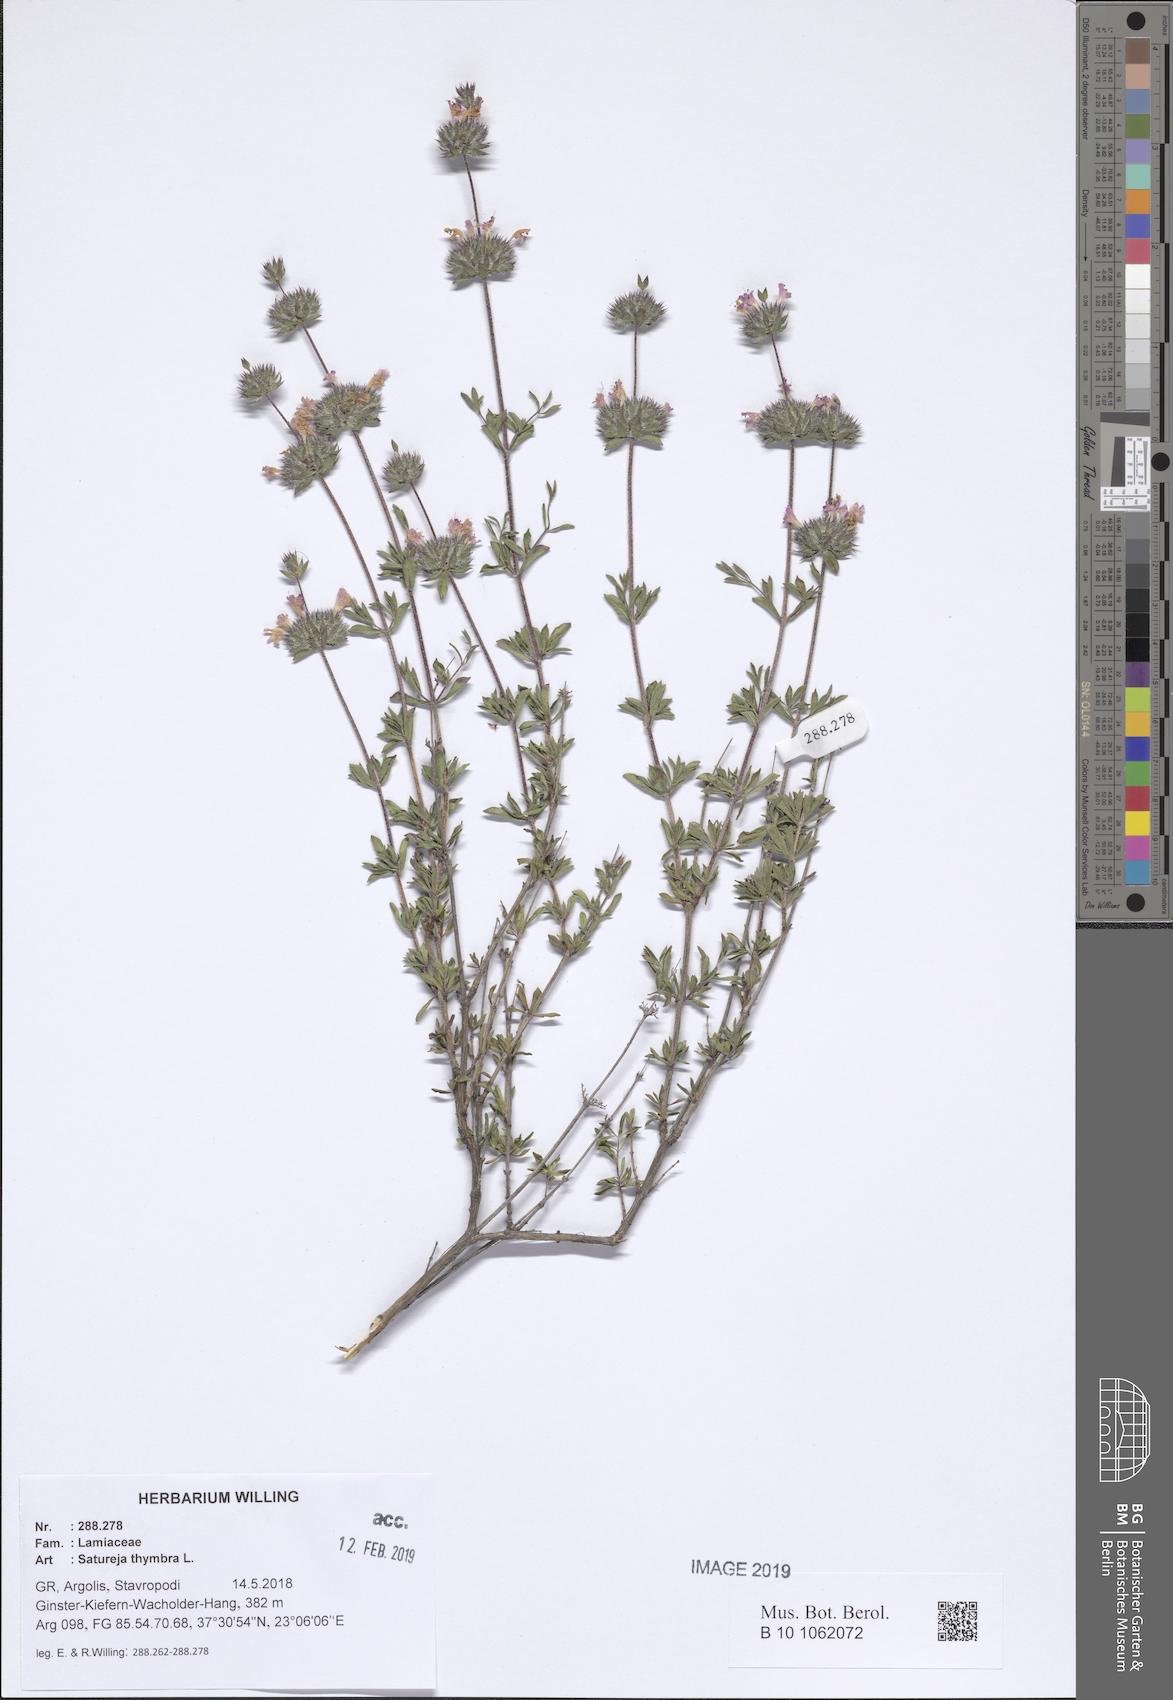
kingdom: Plantae
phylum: Tracheophyta
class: Magnoliopsida
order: Lamiales
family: Lamiaceae
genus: Satureja
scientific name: Satureja thymbra
